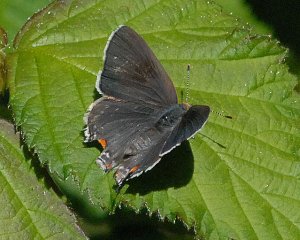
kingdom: Animalia
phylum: Arthropoda
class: Insecta
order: Lepidoptera
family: Lycaenidae
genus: Strymon
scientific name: Strymon melinus
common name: Gray Hairstreak
